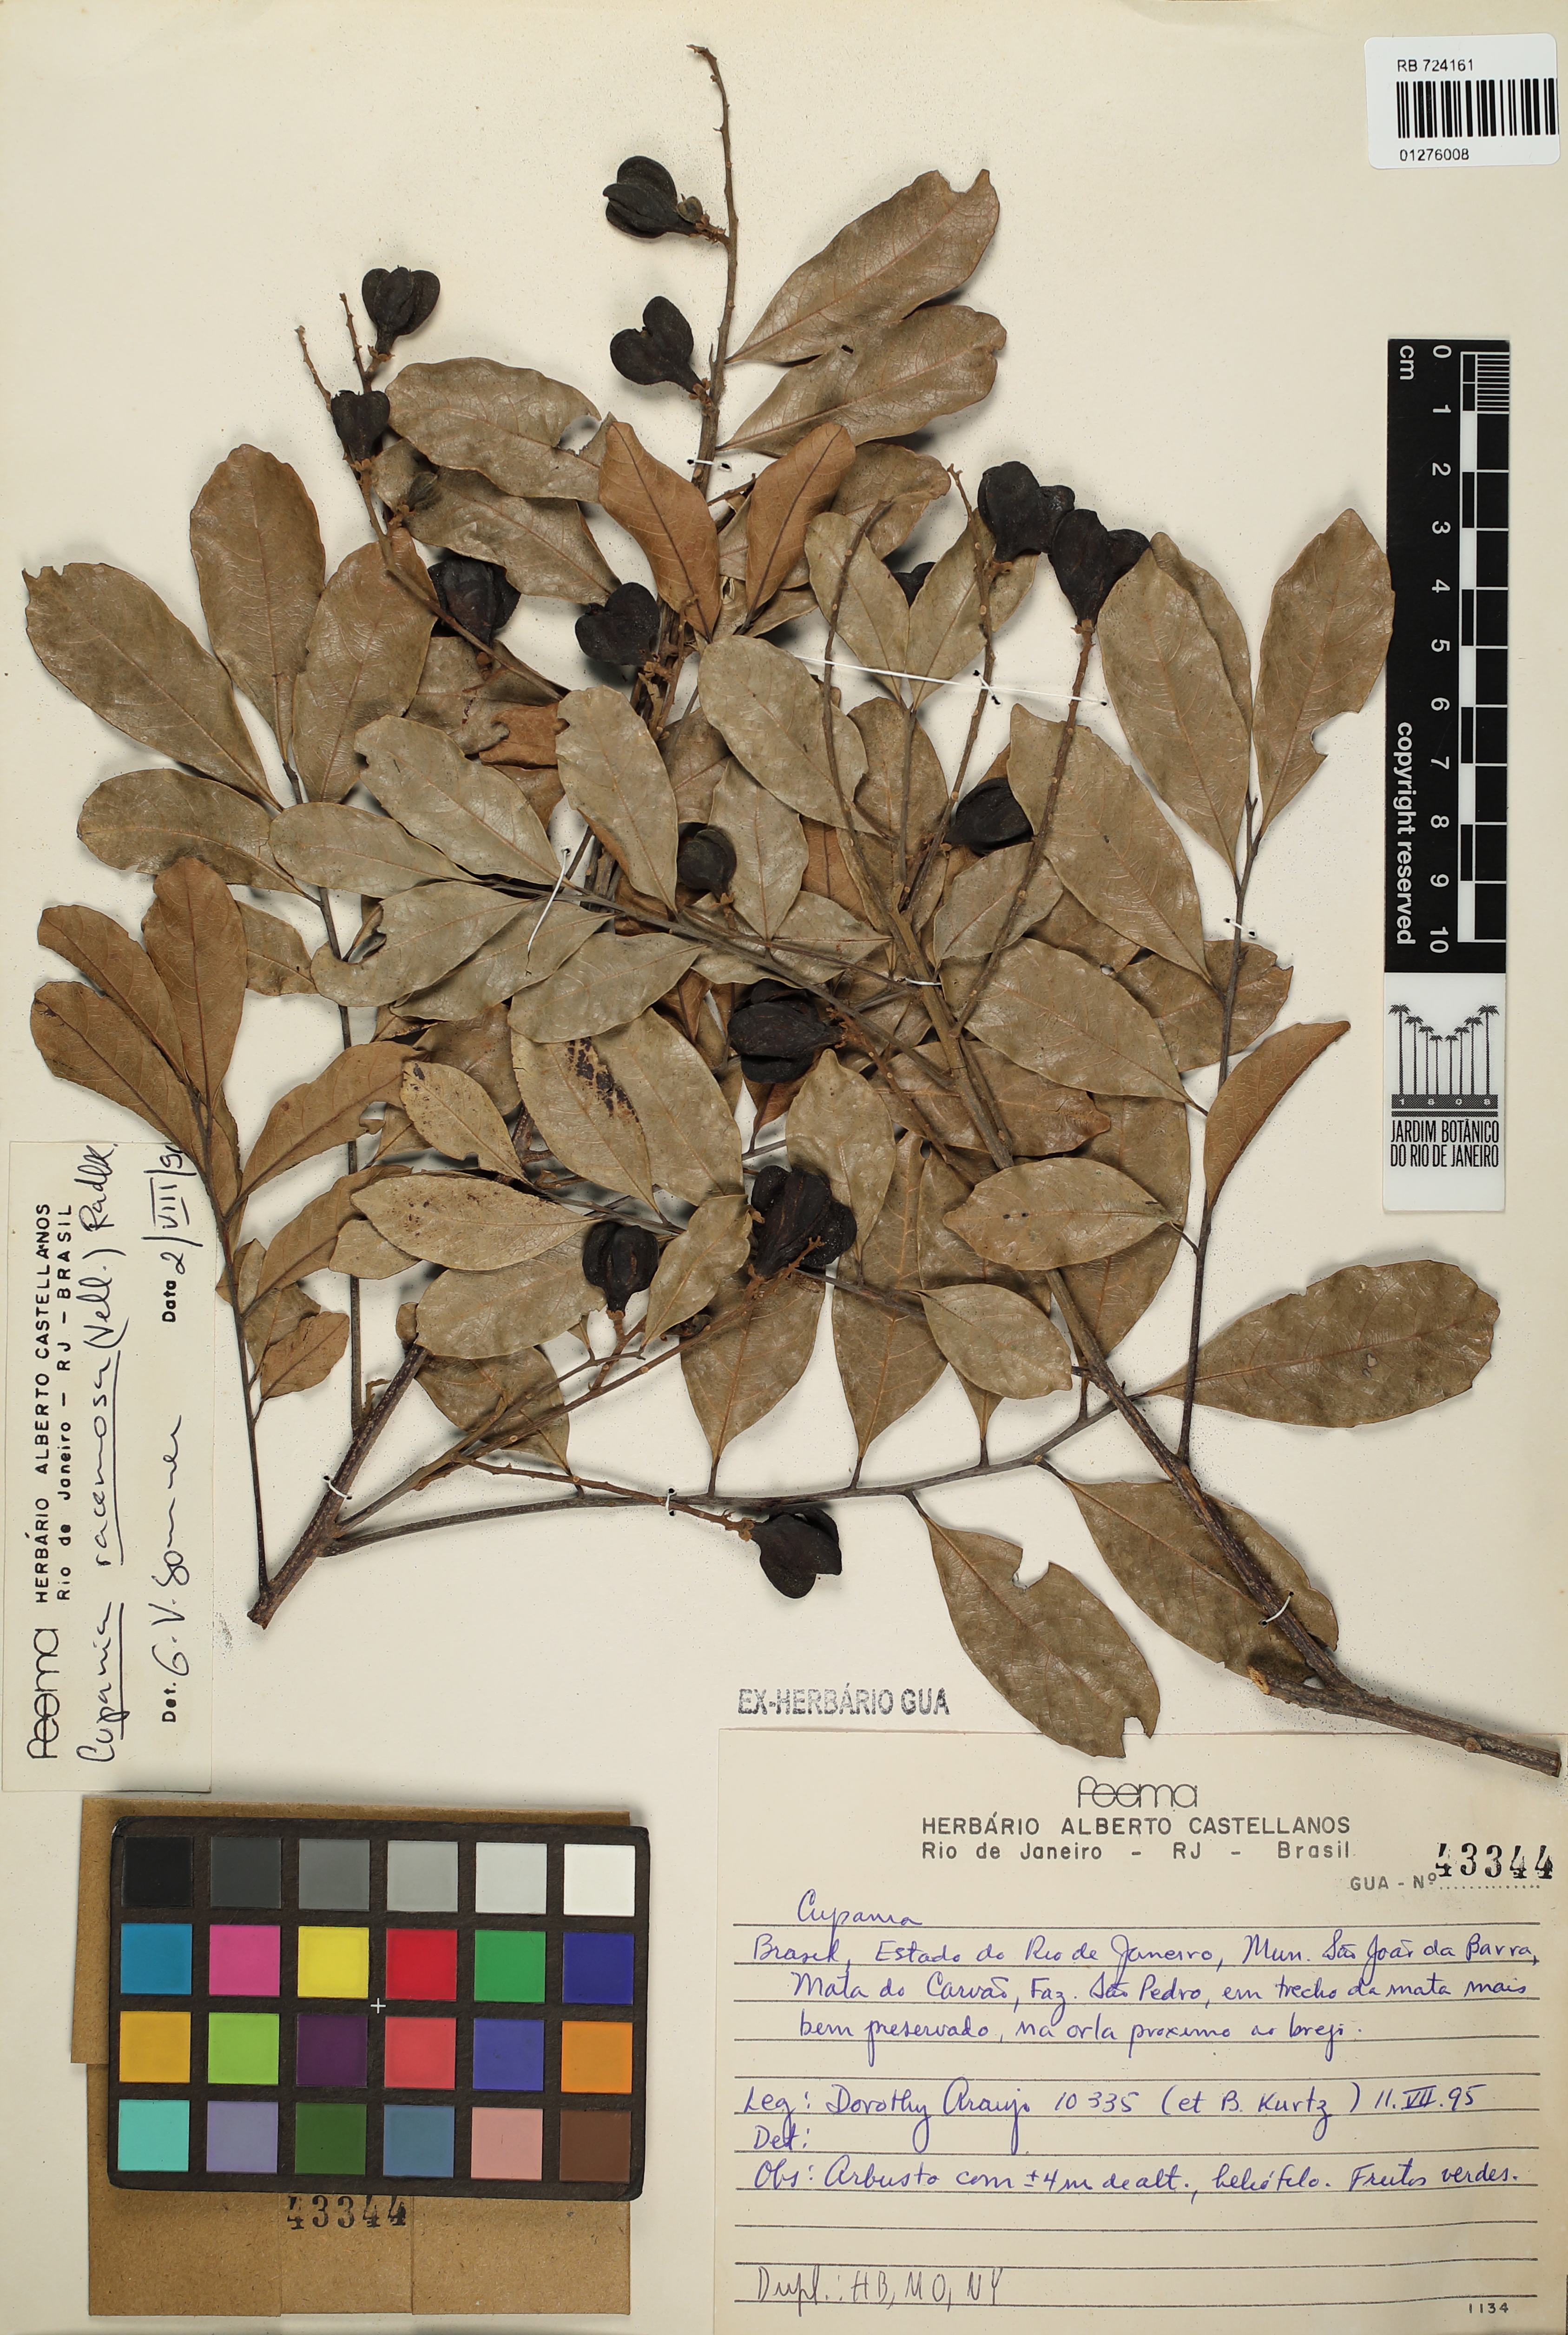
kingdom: Plantae
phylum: Tracheophyta
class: Magnoliopsida
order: Sapindales
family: Sapindaceae
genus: Cupania
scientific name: Cupania racemosa
